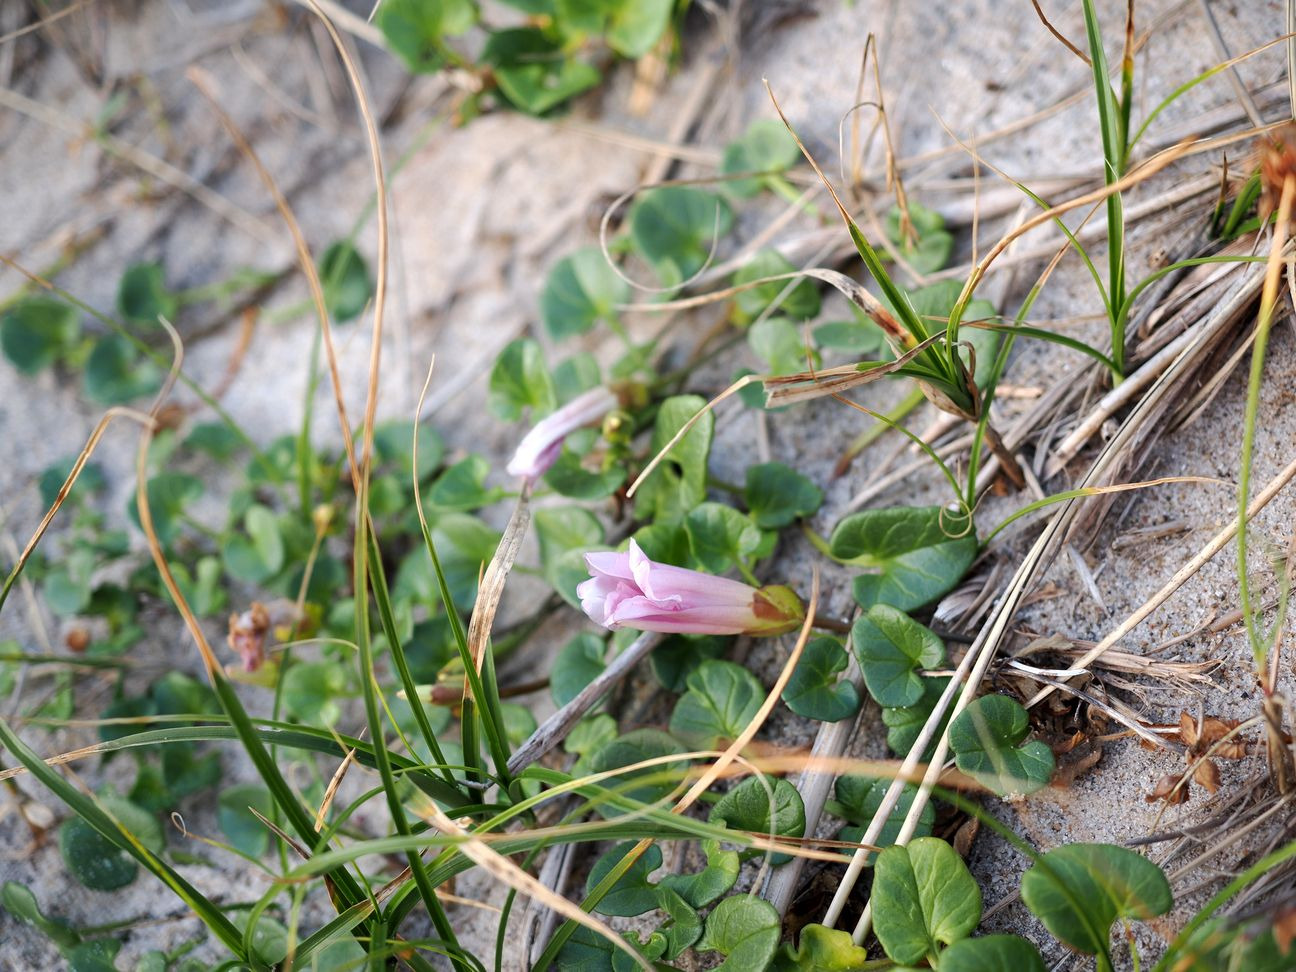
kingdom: Plantae
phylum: Tracheophyta
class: Magnoliopsida
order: Solanales
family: Convolvulaceae
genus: Calystegia
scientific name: Calystegia soldanella
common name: Strand-snerle
